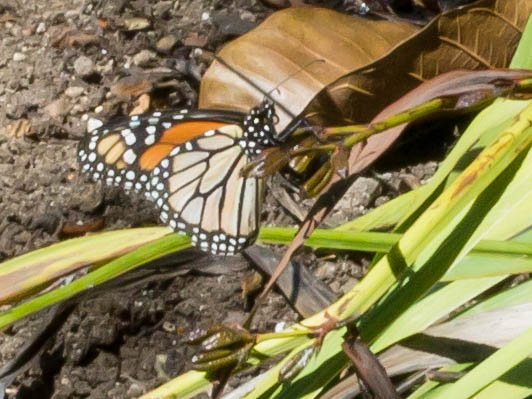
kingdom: Animalia
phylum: Arthropoda
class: Insecta
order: Lepidoptera
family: Nymphalidae
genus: Danaus
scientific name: Danaus plexippus
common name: Monarch
